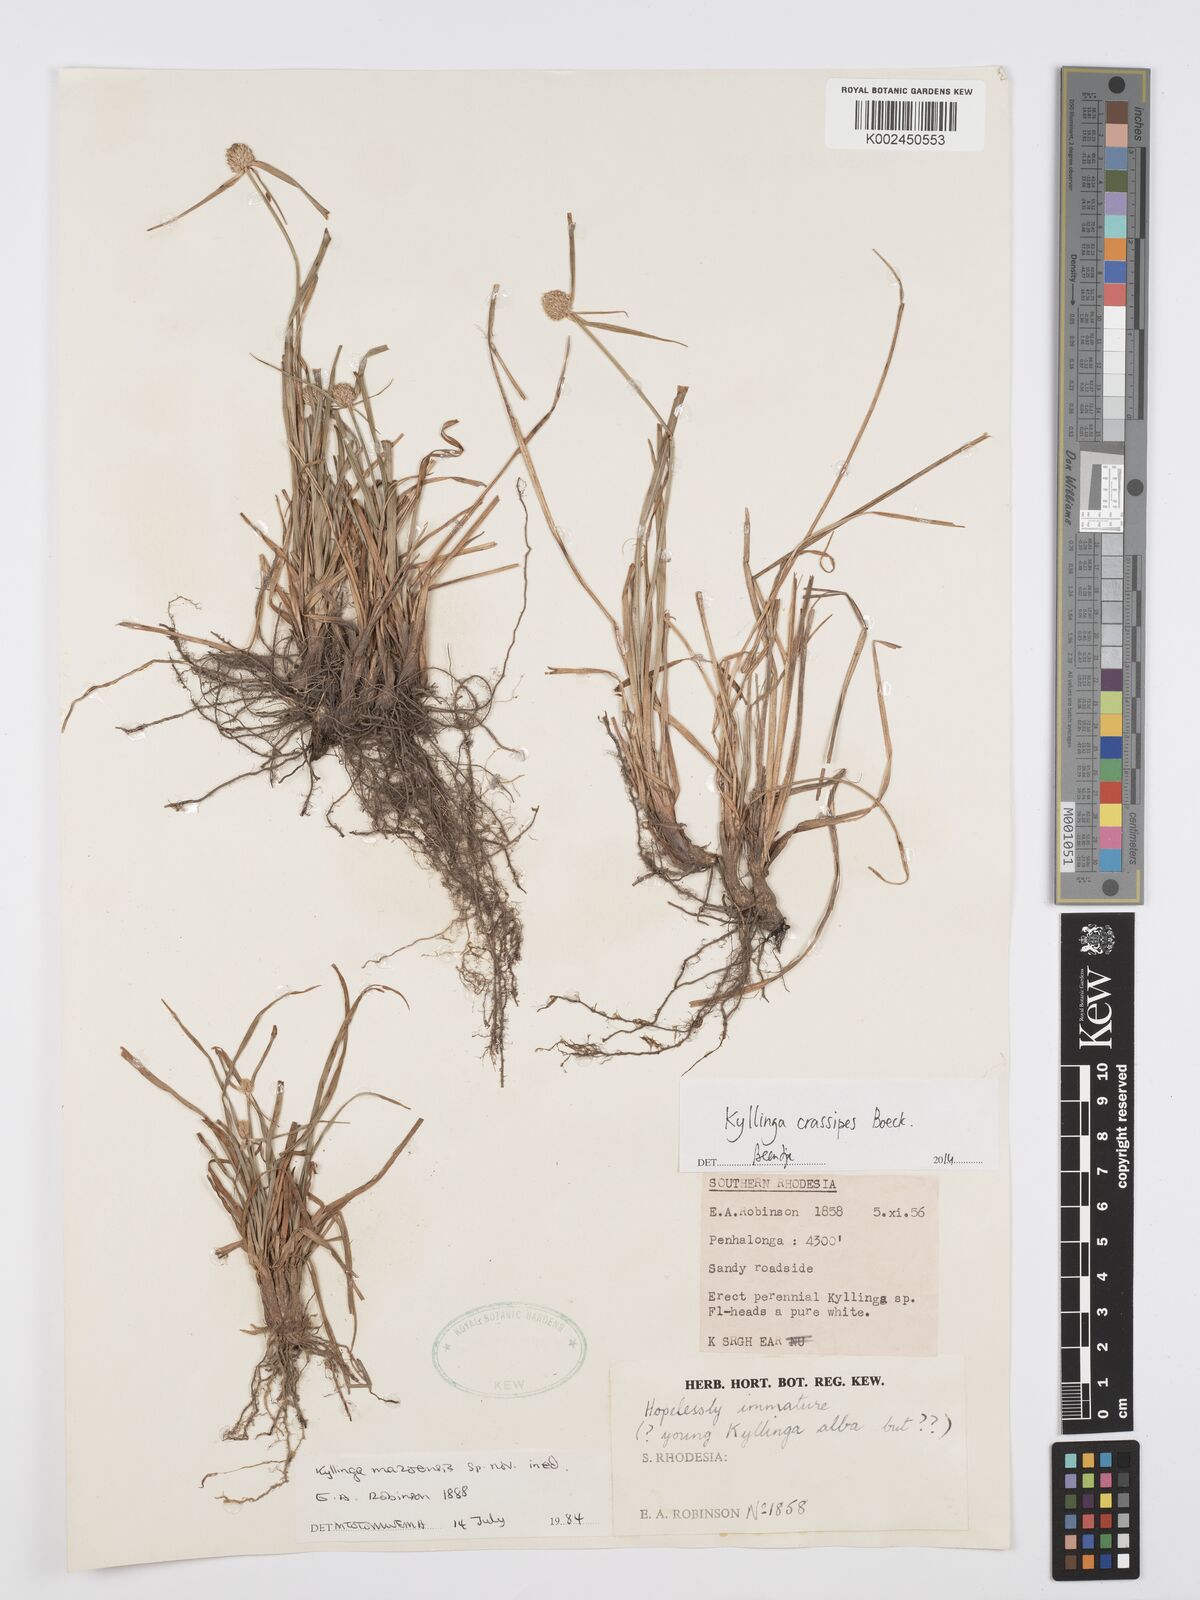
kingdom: Plantae
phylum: Tracheophyta
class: Liliopsida
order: Poales
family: Cyperaceae
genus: Cyperus
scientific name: Cyperus crassipes
